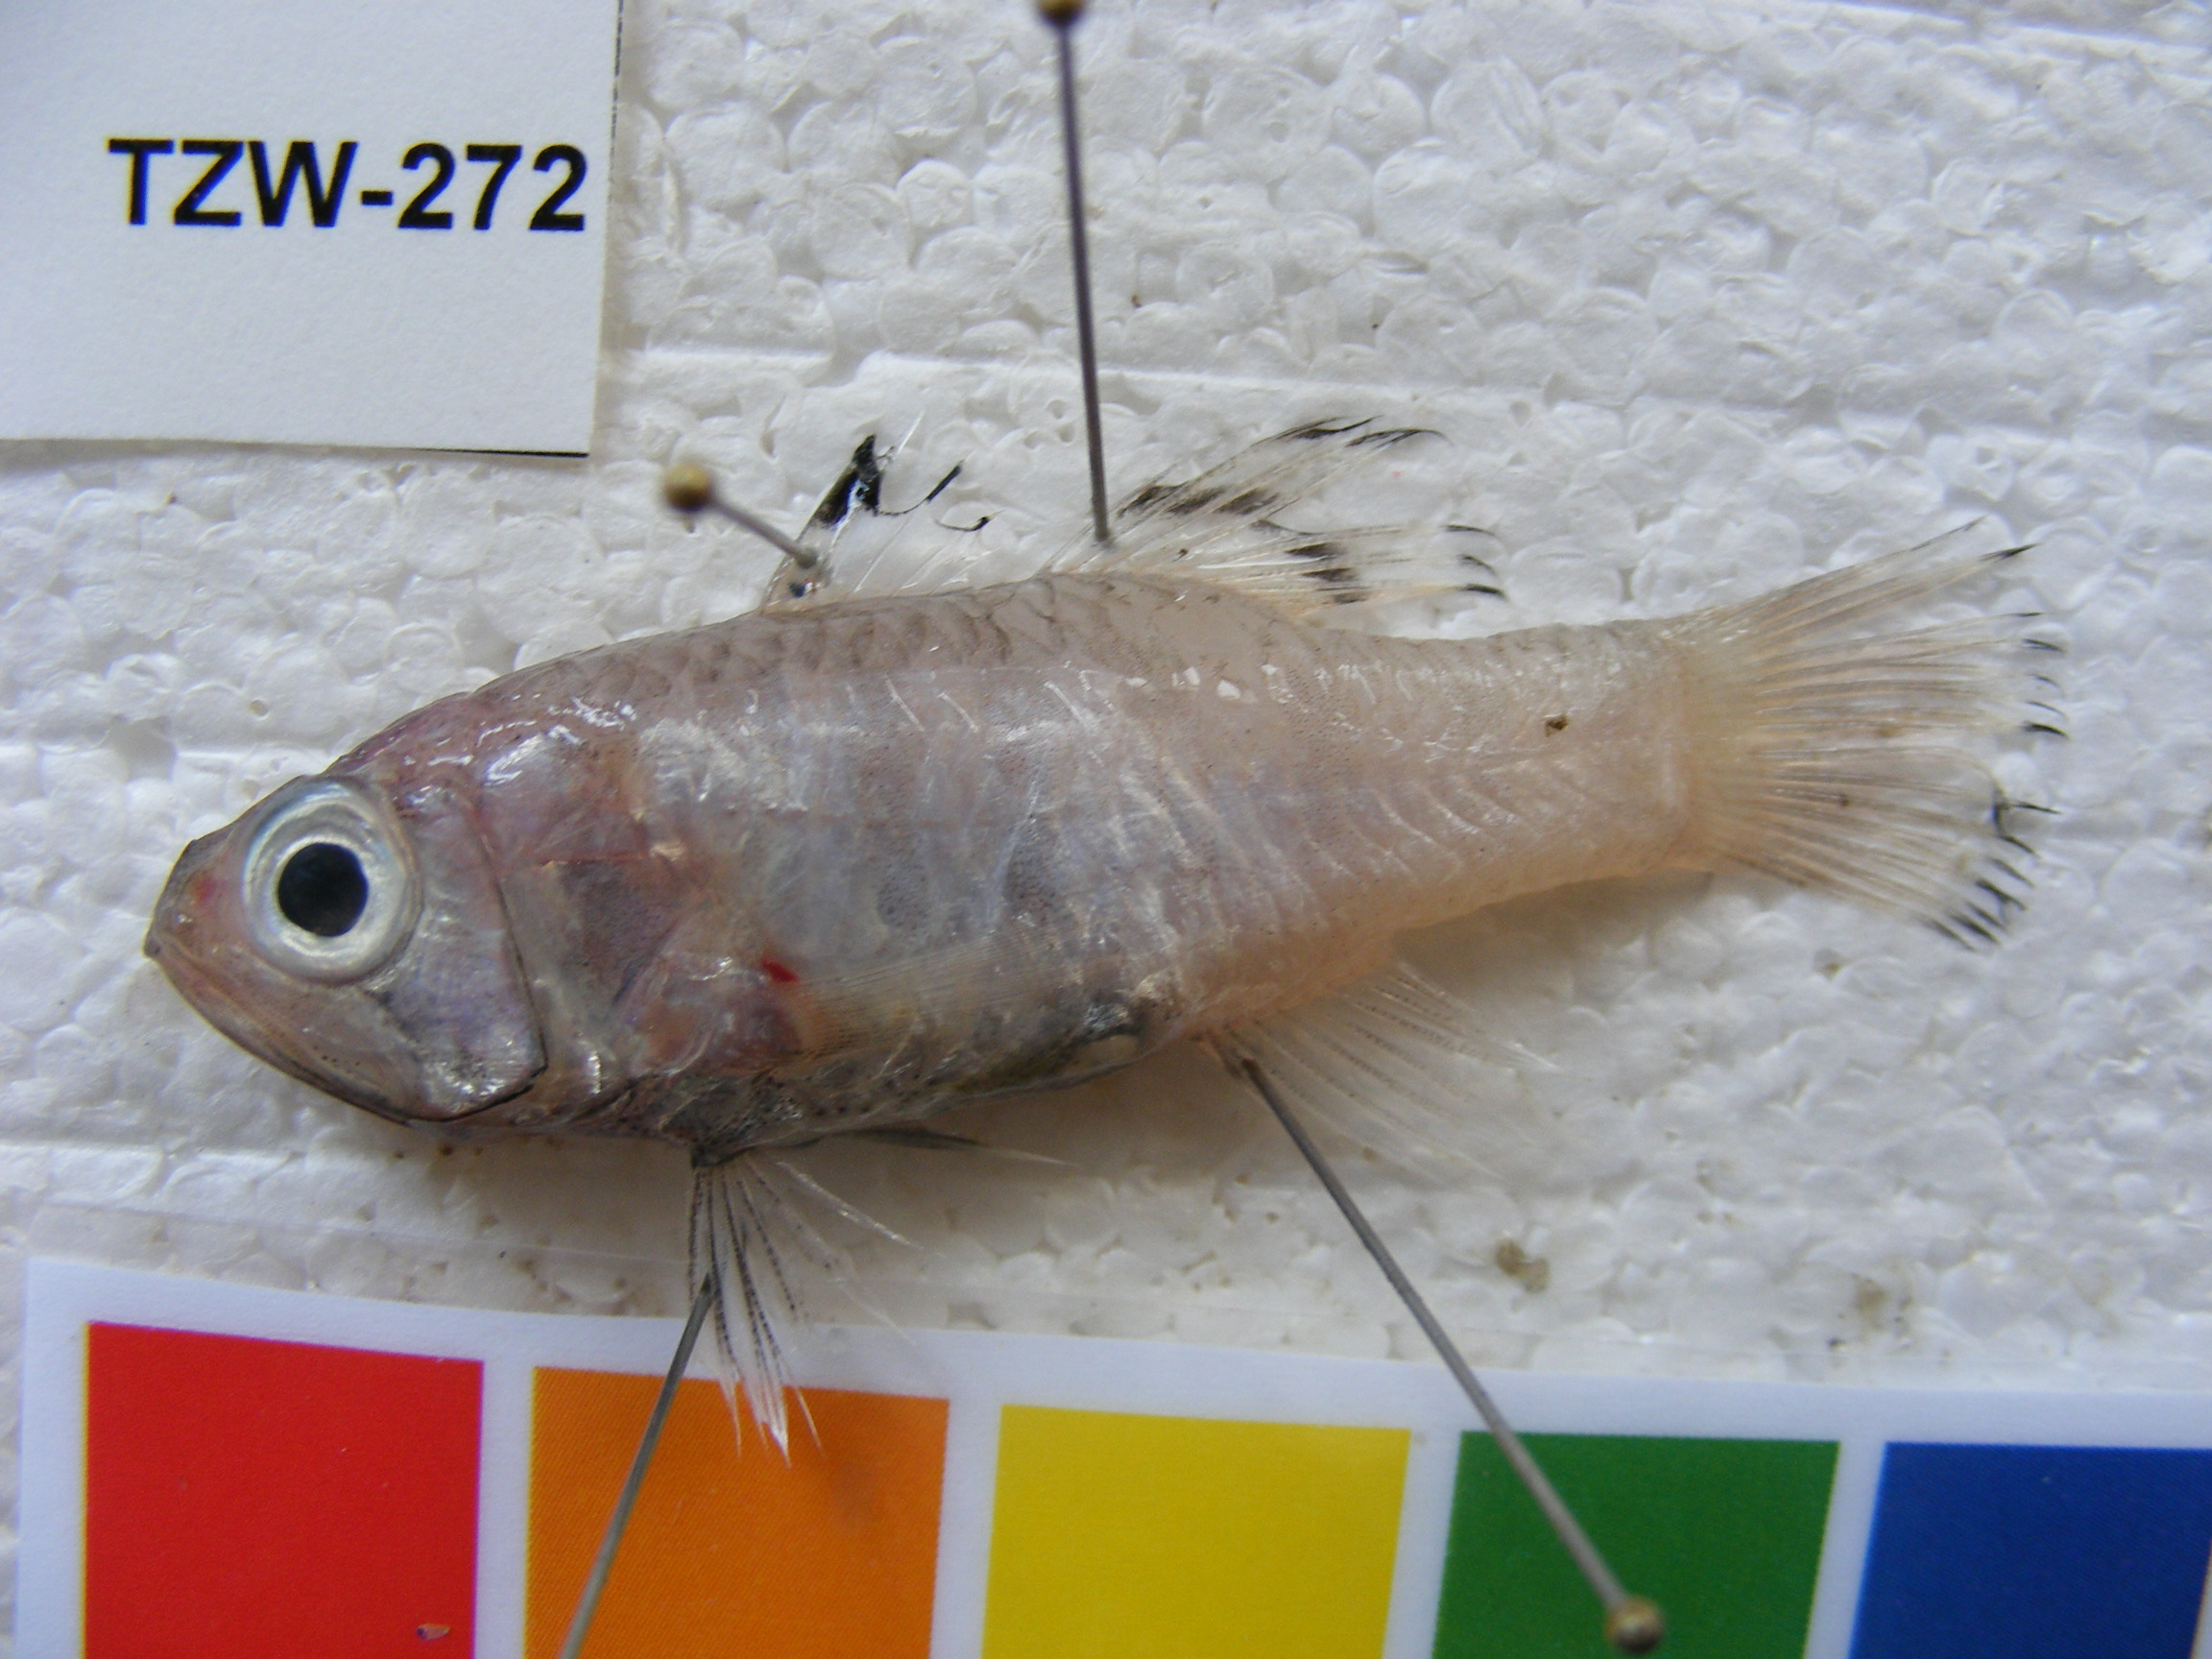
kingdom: Animalia
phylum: Chordata
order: Perciformes
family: Apogonidae
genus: Jaydia
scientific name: Jaydia smithi
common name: Smith's cardinalfish
